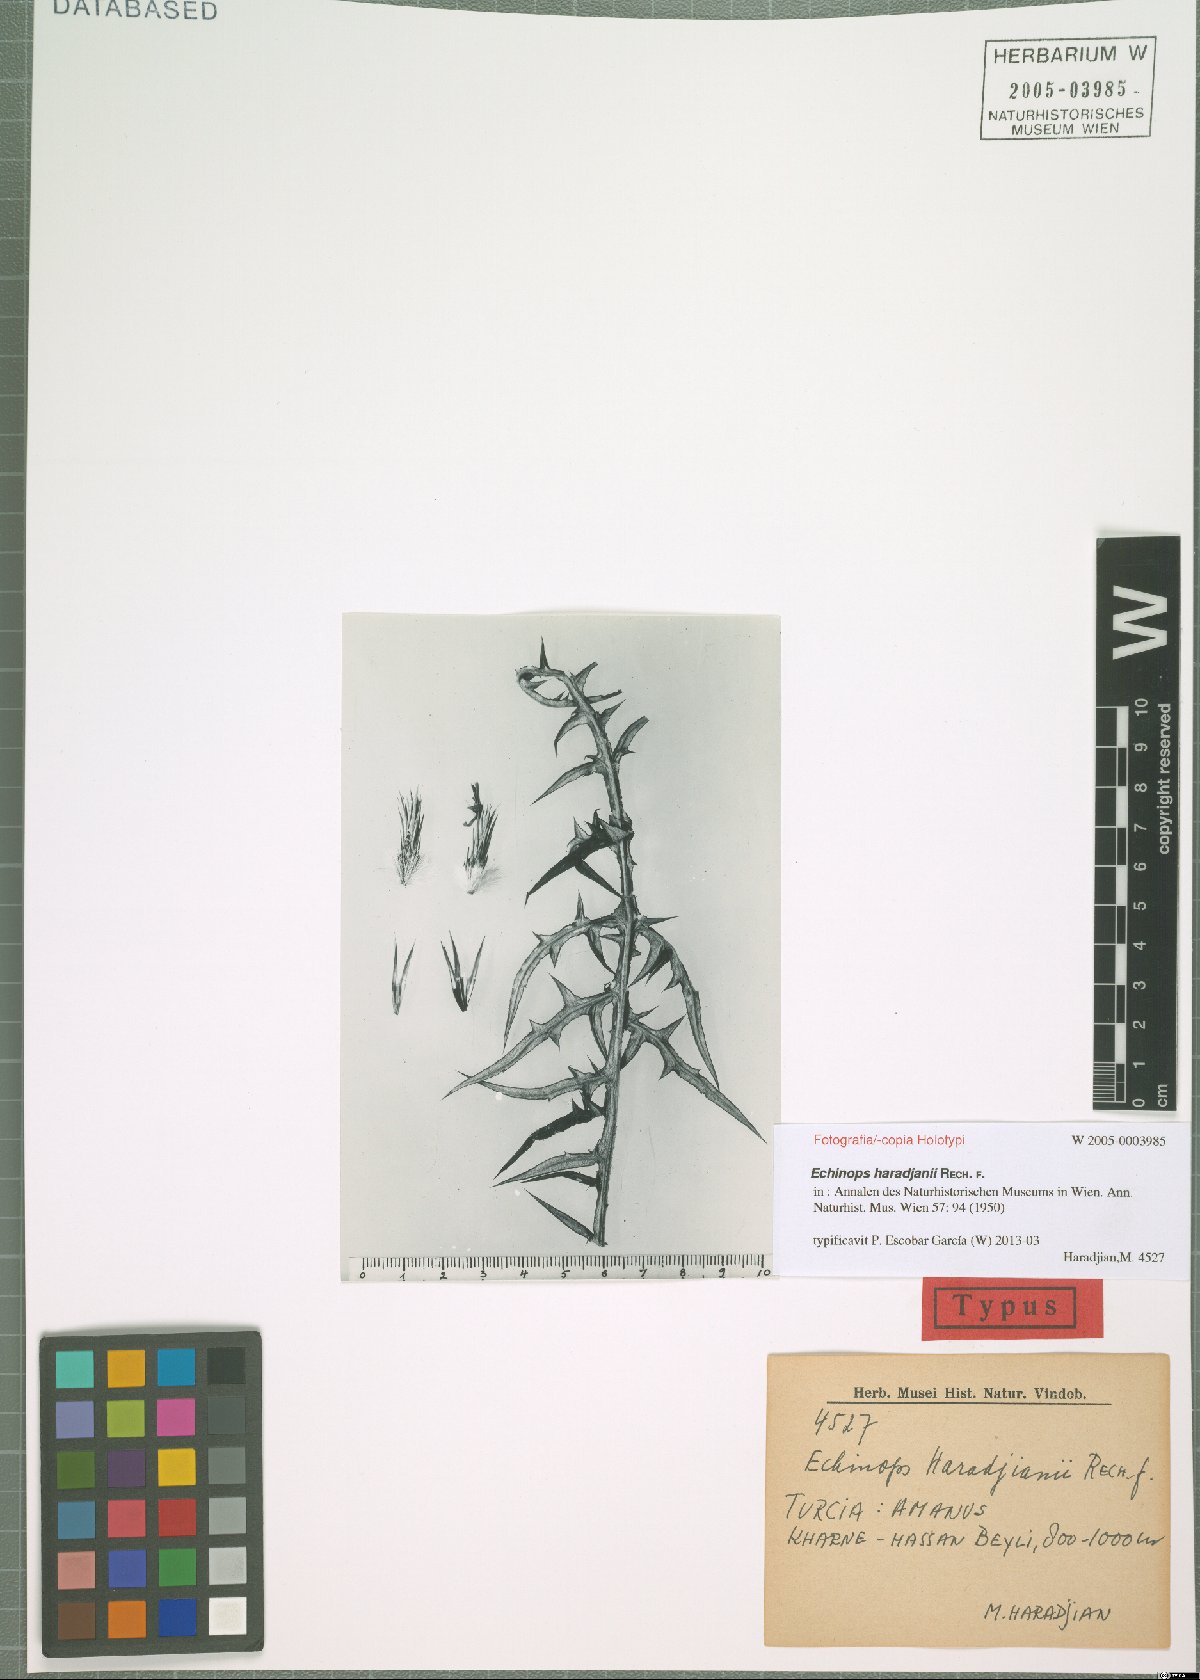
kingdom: Plantae
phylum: Tracheophyta
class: Magnoliopsida
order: Asterales
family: Asteraceae
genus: Echinops
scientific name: Echinops haradjanii
